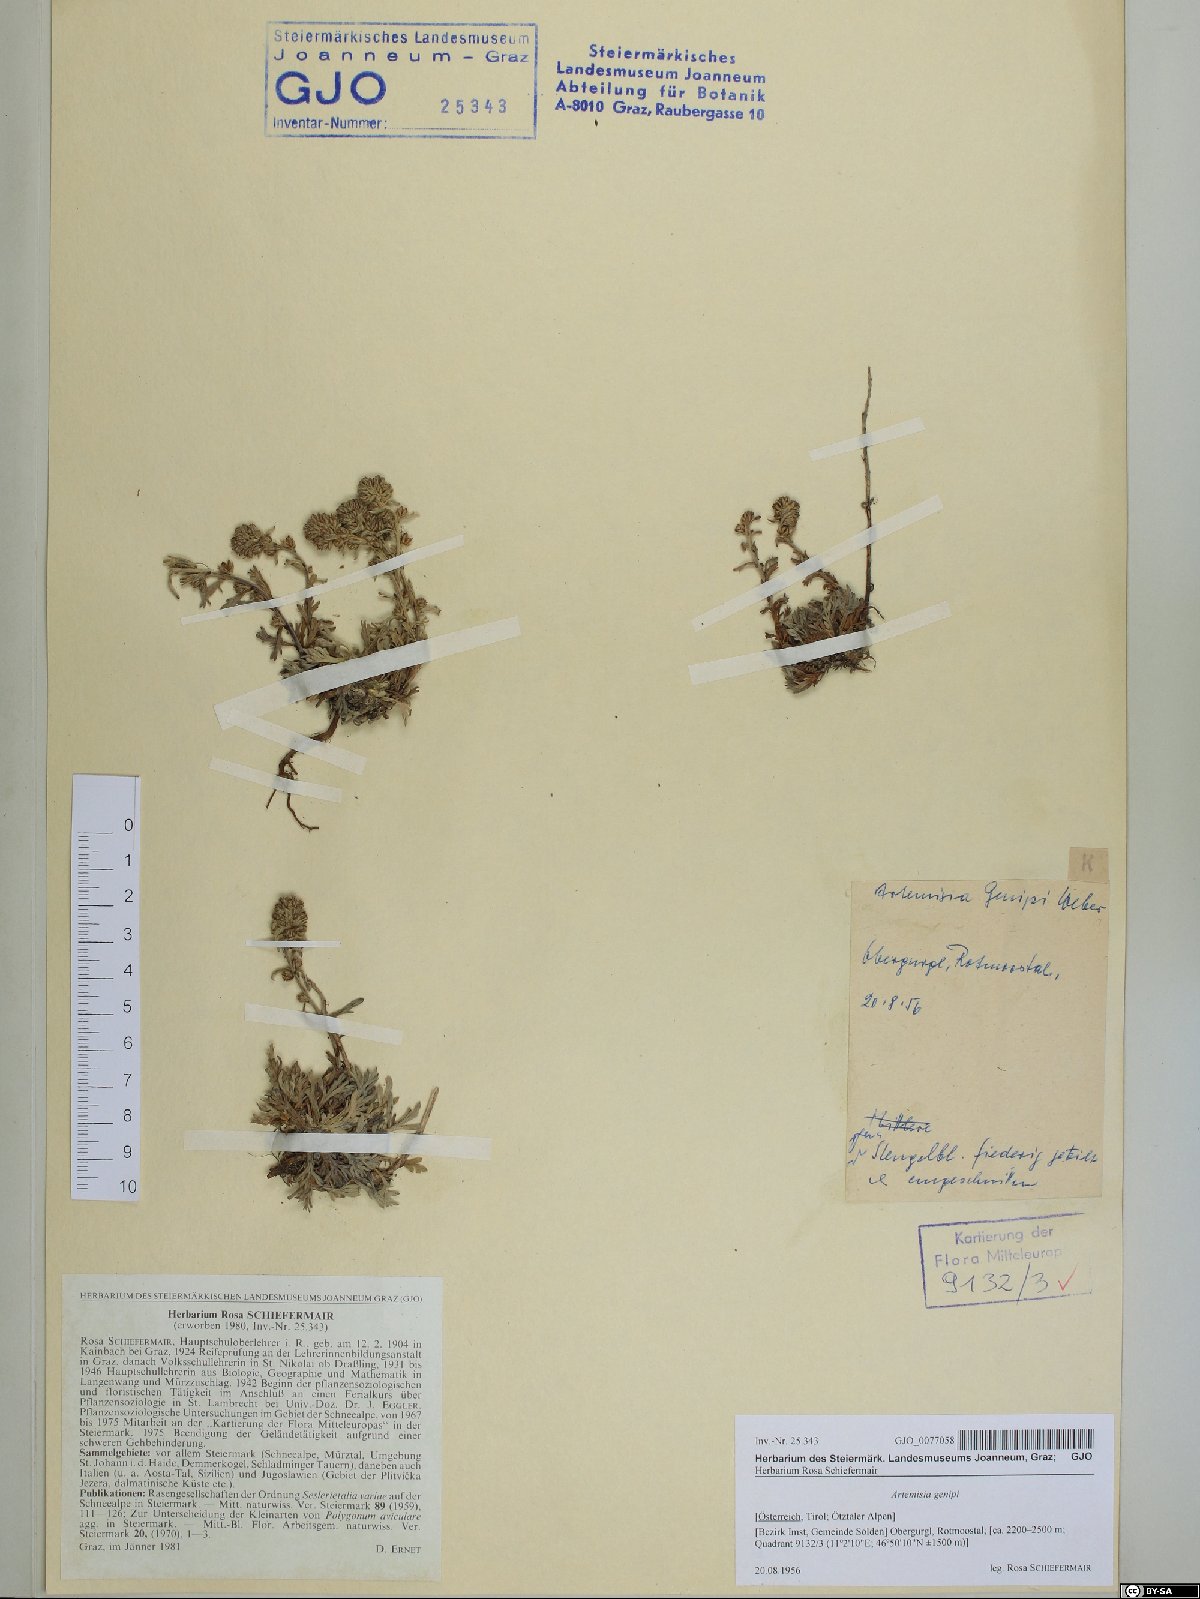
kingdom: Plantae
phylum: Tracheophyta
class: Magnoliopsida
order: Asterales
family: Asteraceae
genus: Artemisia
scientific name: Artemisia genipi
